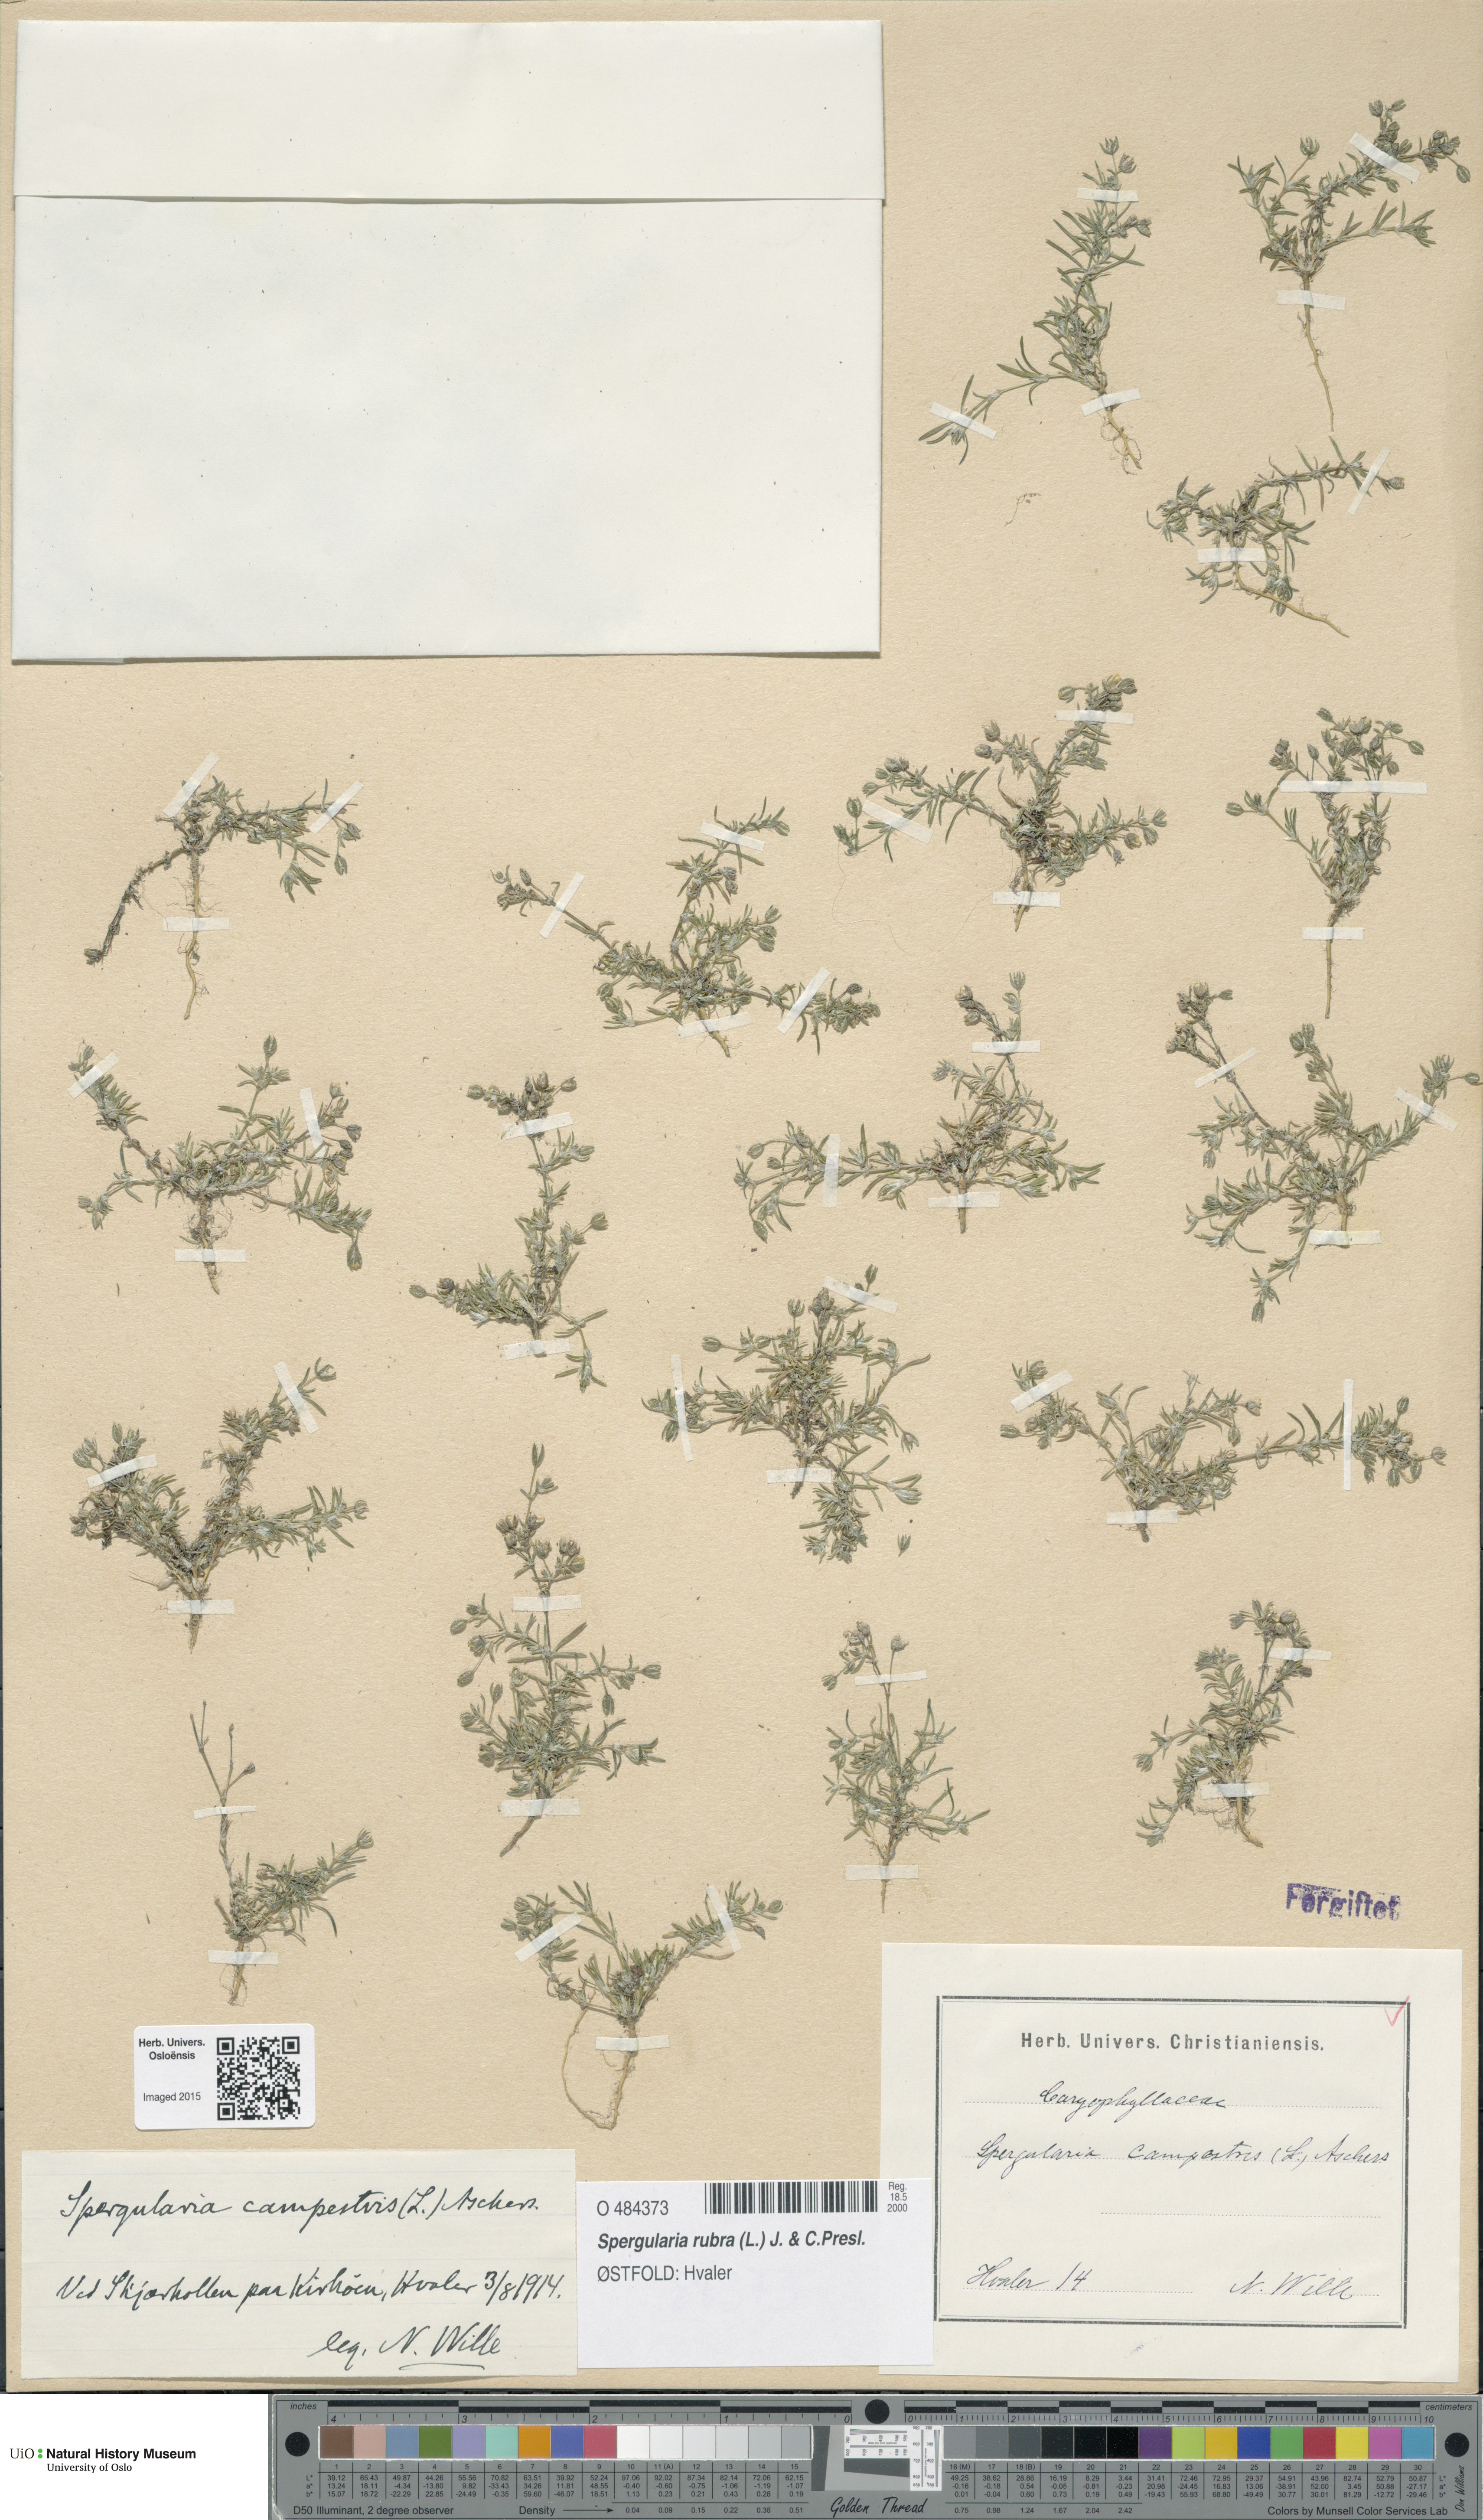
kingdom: Plantae
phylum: Tracheophyta
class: Magnoliopsida
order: Caryophyllales
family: Caryophyllaceae
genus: Spergularia
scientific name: Spergularia rubra
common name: Red sand-spurrey
